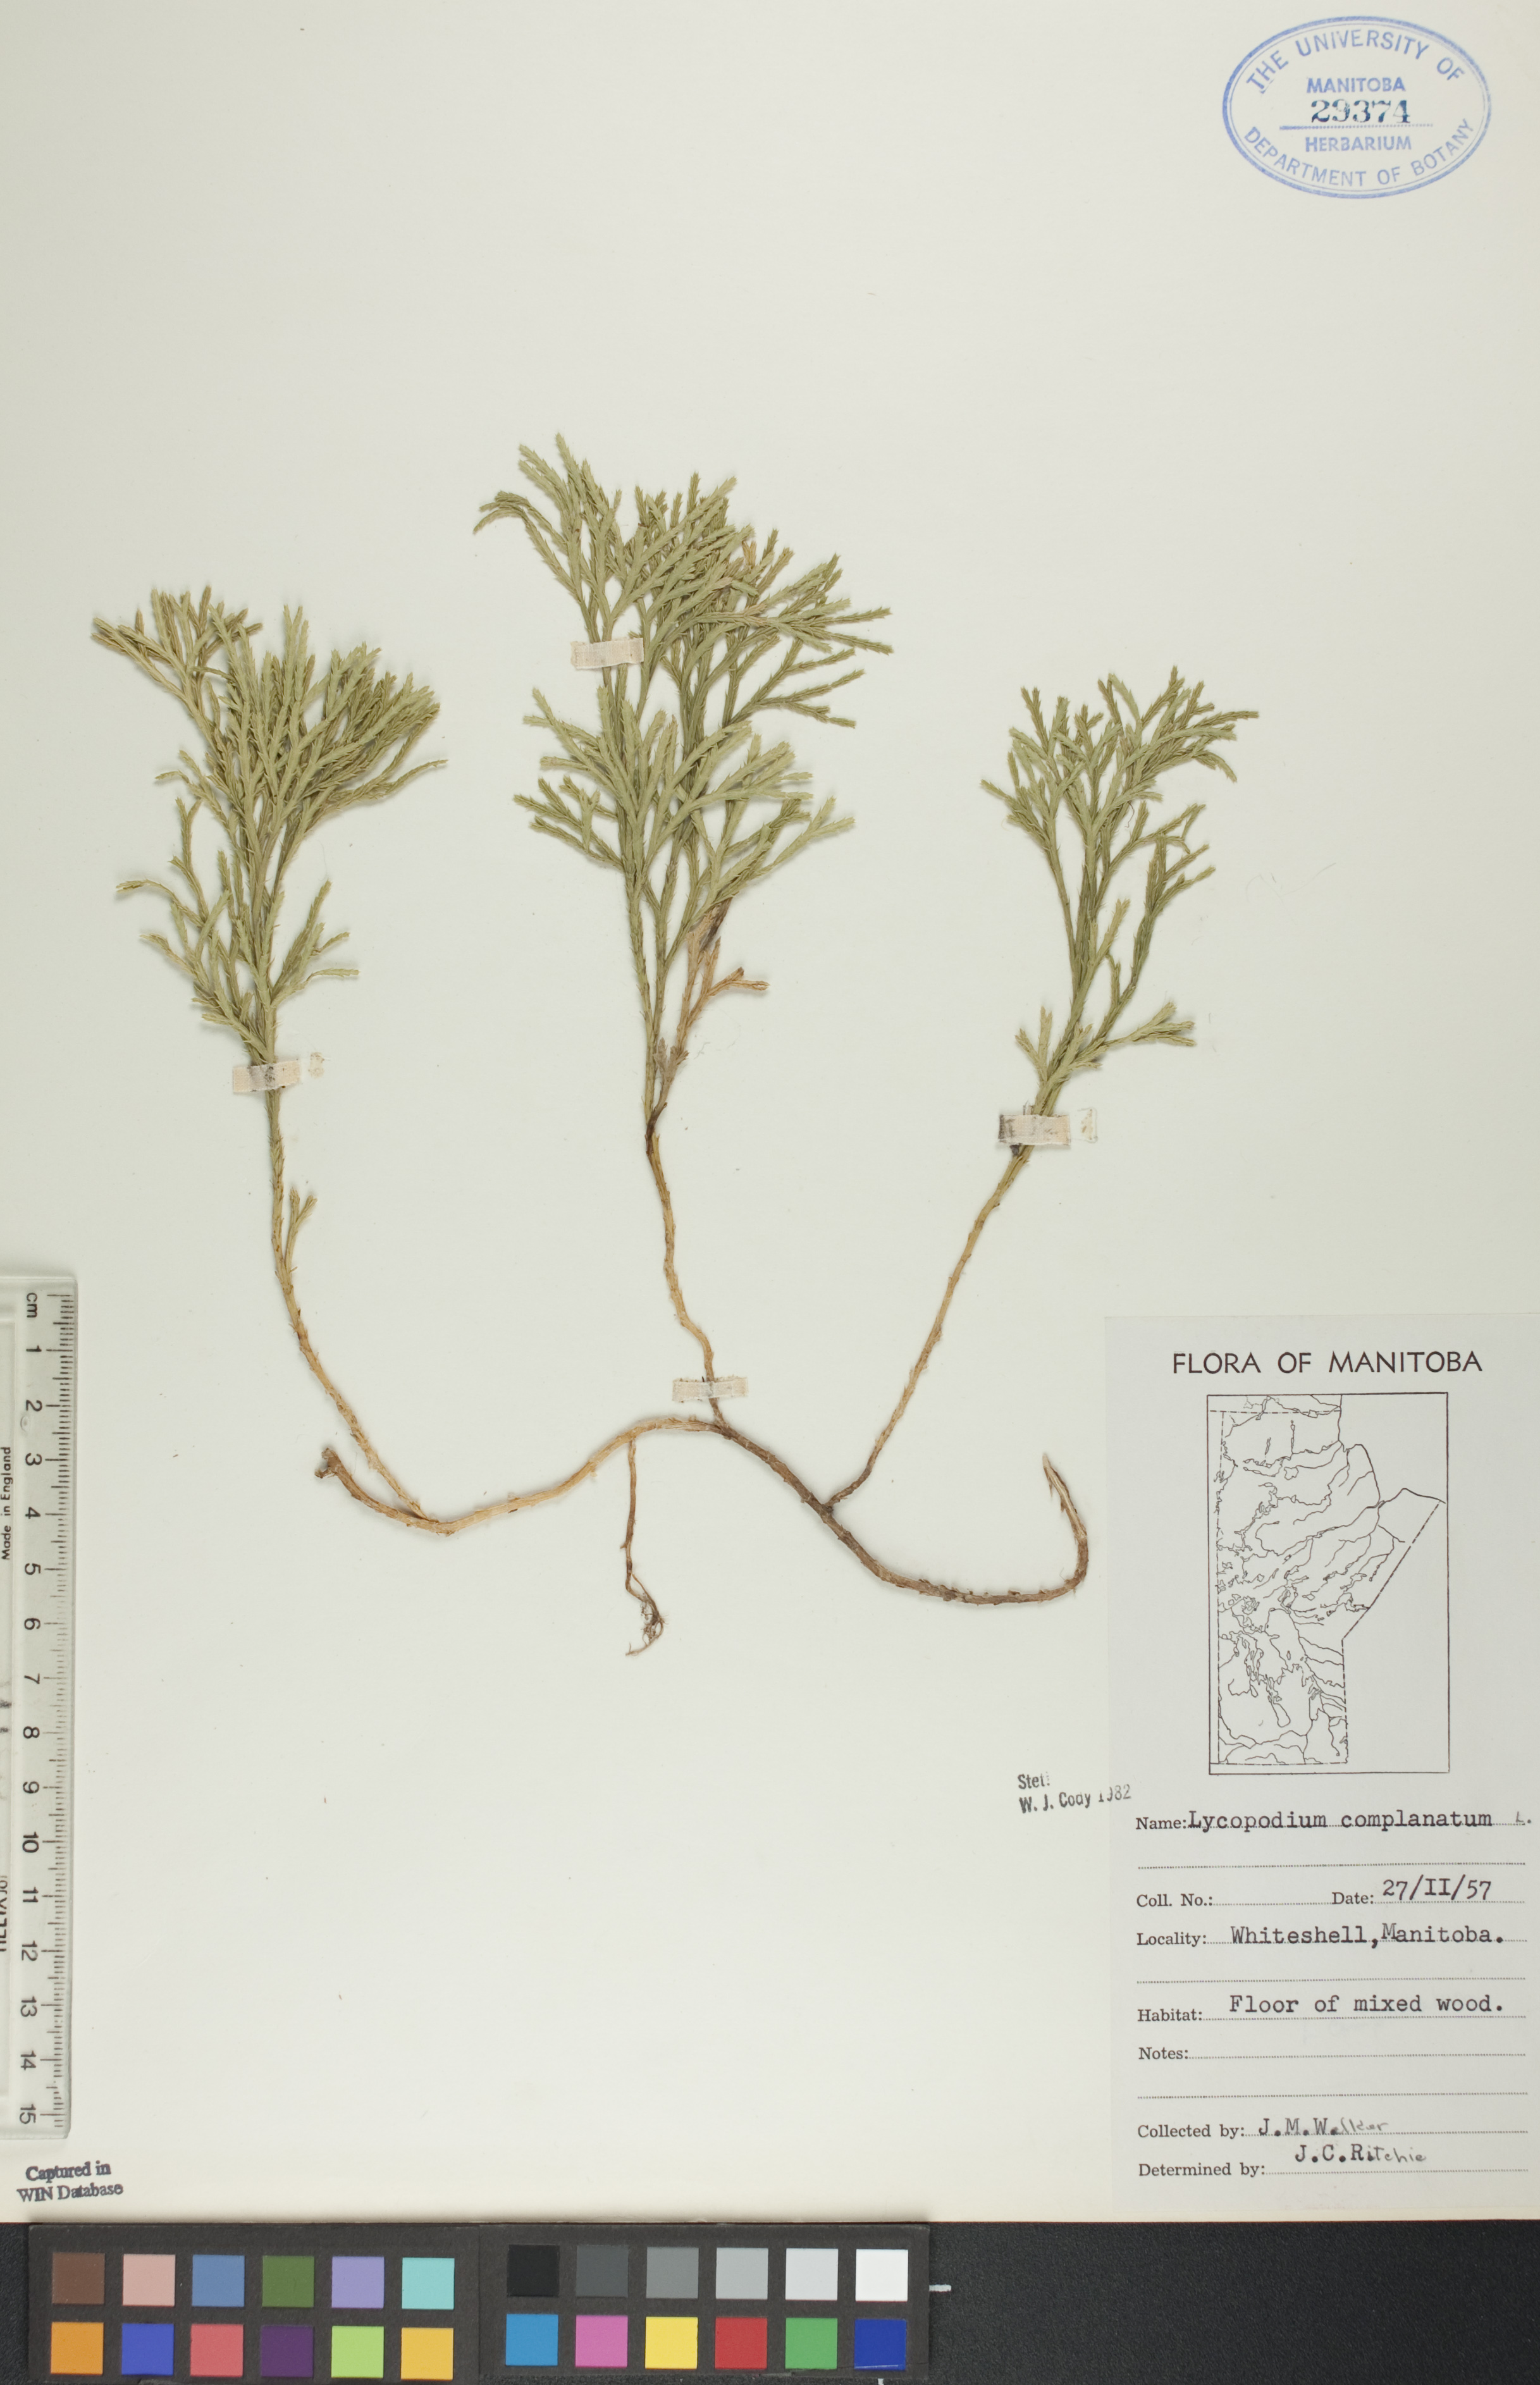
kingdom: Plantae
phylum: Tracheophyta
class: Lycopodiopsida
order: Lycopodiales
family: Lycopodiaceae
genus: Diphasiastrum
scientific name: Diphasiastrum
